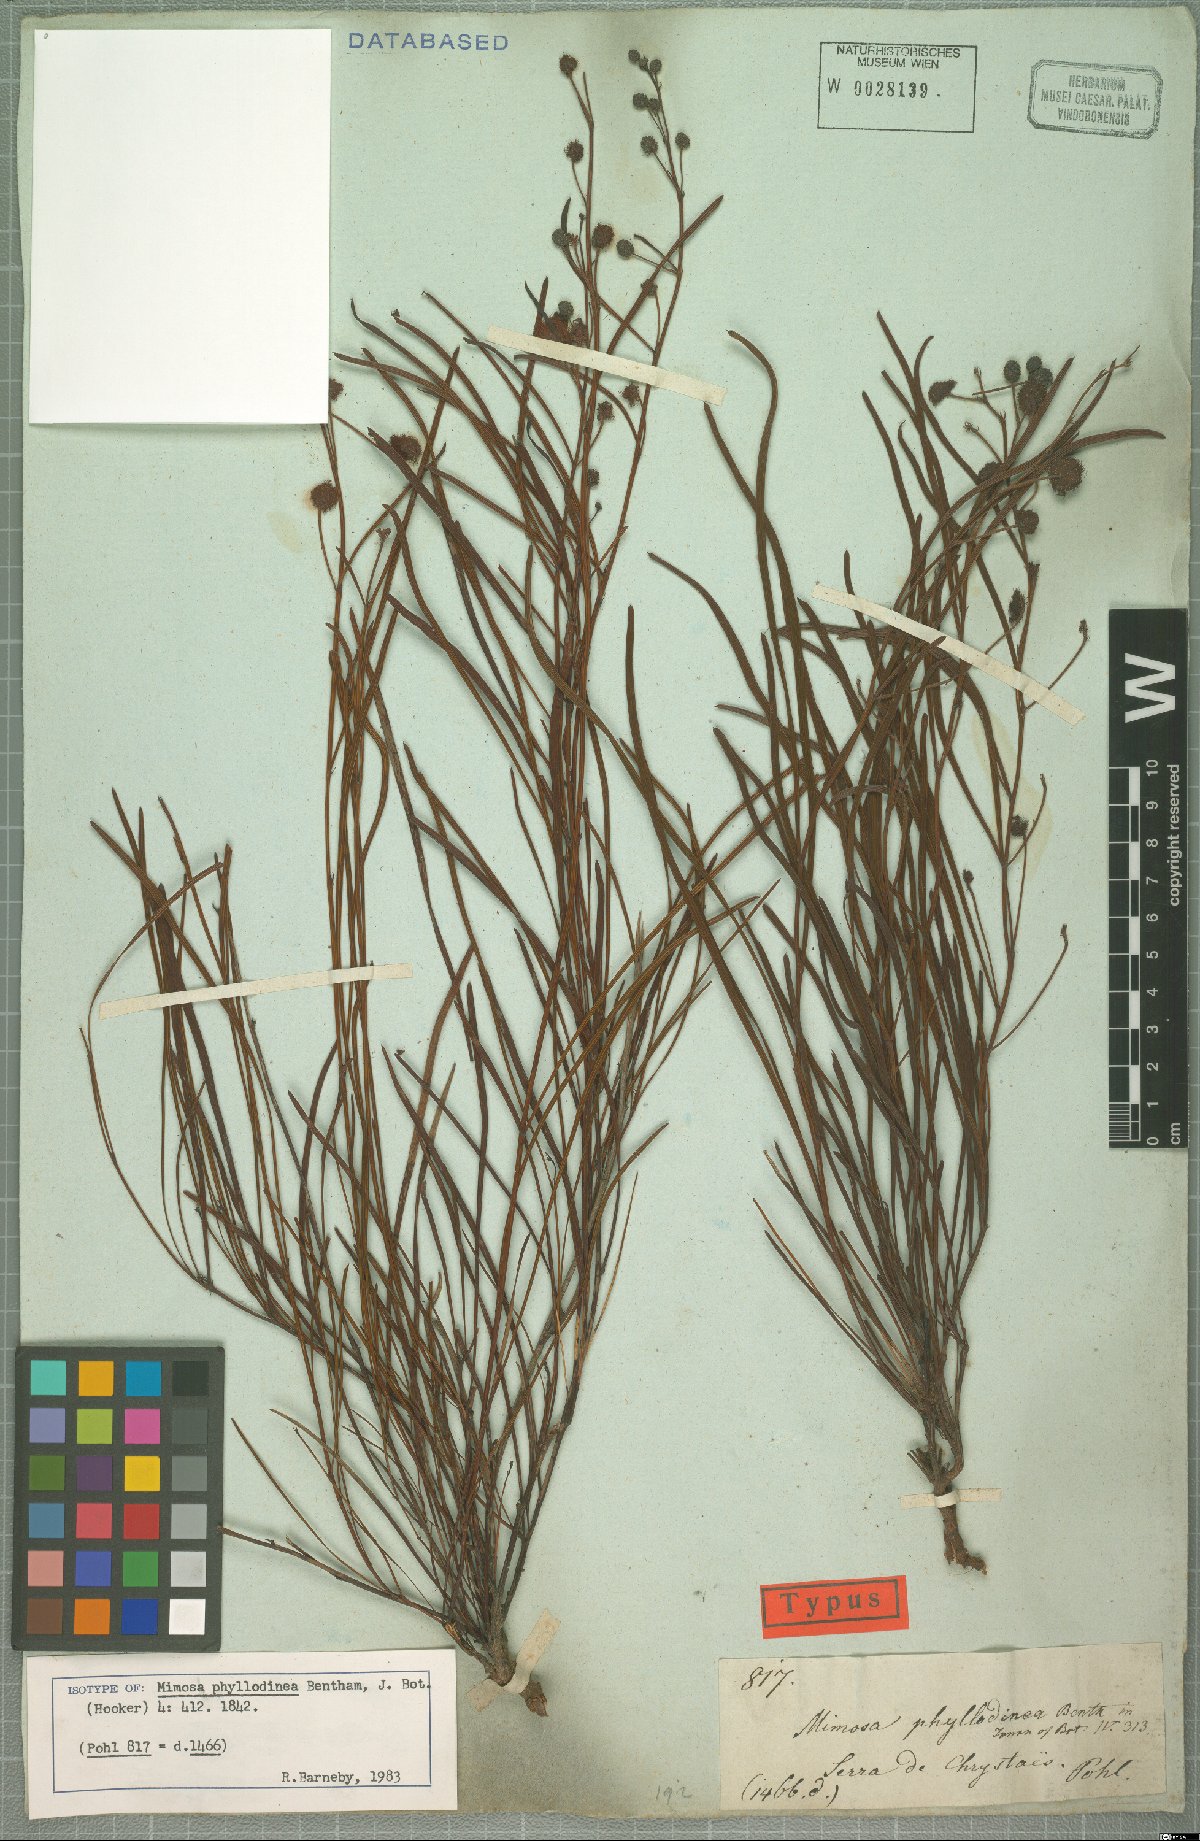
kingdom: Plantae
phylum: Tracheophyta
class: Magnoliopsida
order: Fabales
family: Fabaceae
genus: Mimosa
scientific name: Mimosa phyllodinea
